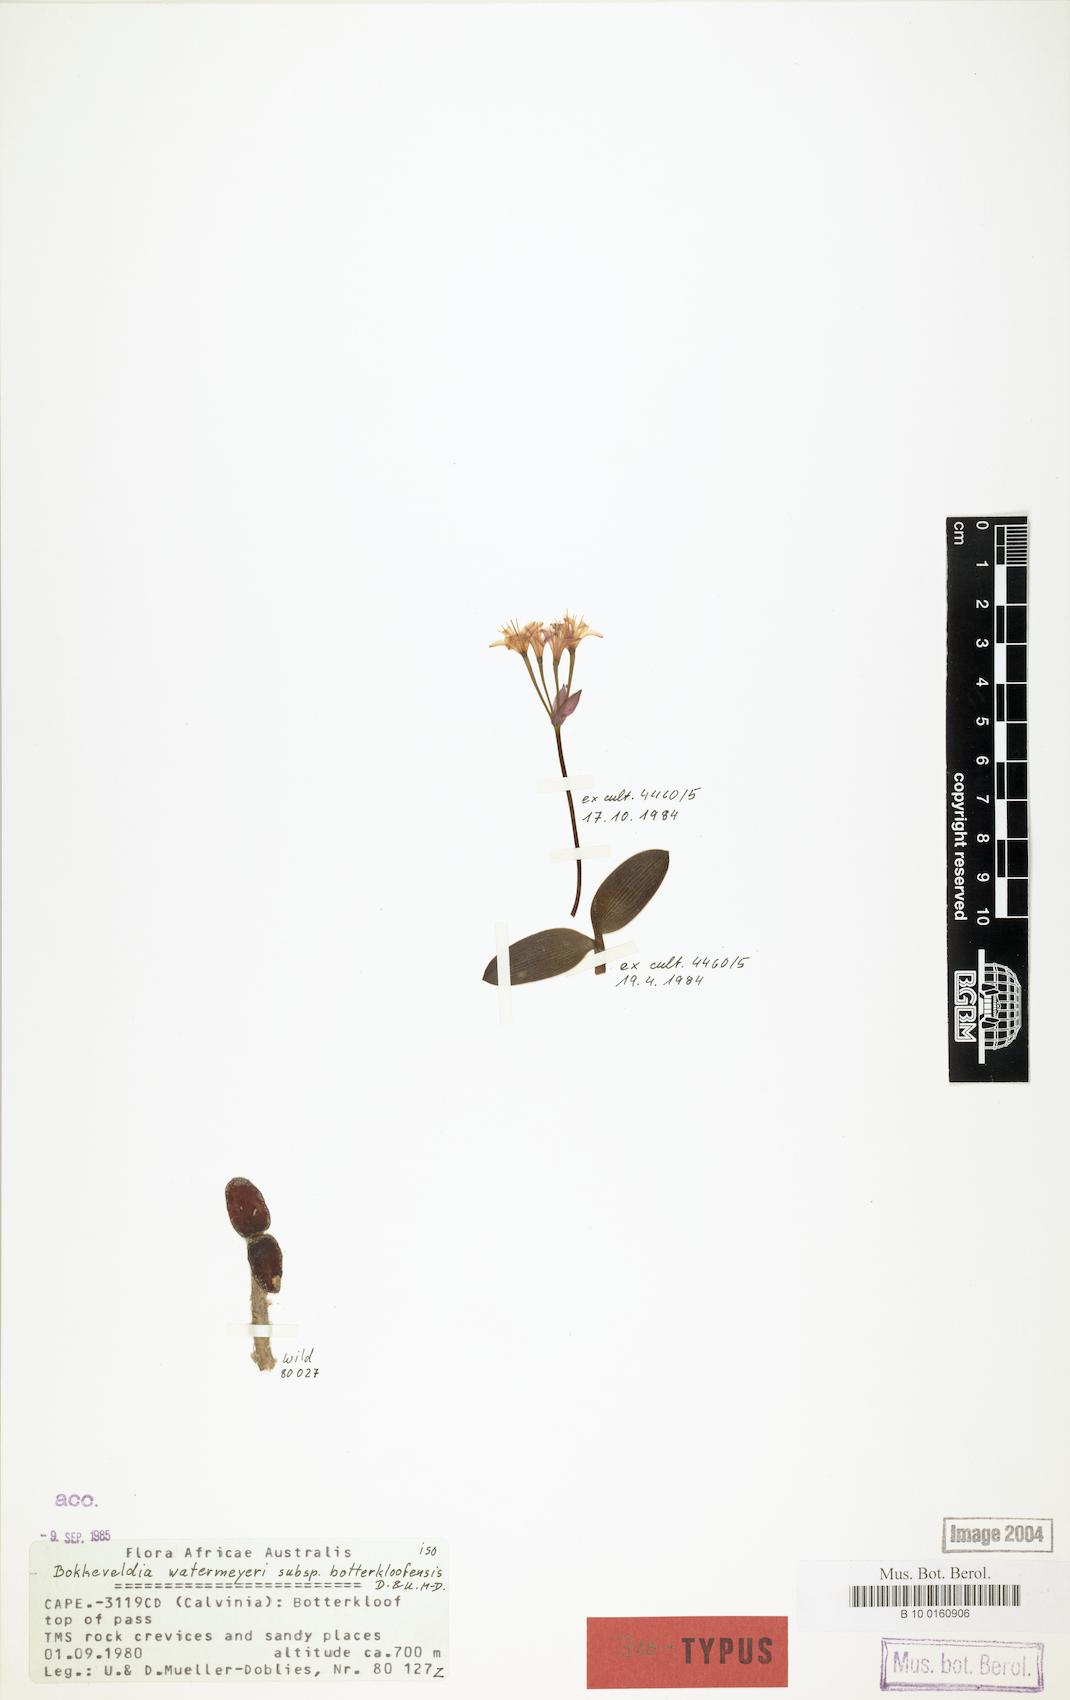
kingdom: Plantae
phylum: Tracheophyta
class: Liliopsida
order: Asparagales
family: Amaryllidaceae
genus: Strumaria
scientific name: Strumaria watermeyeri
